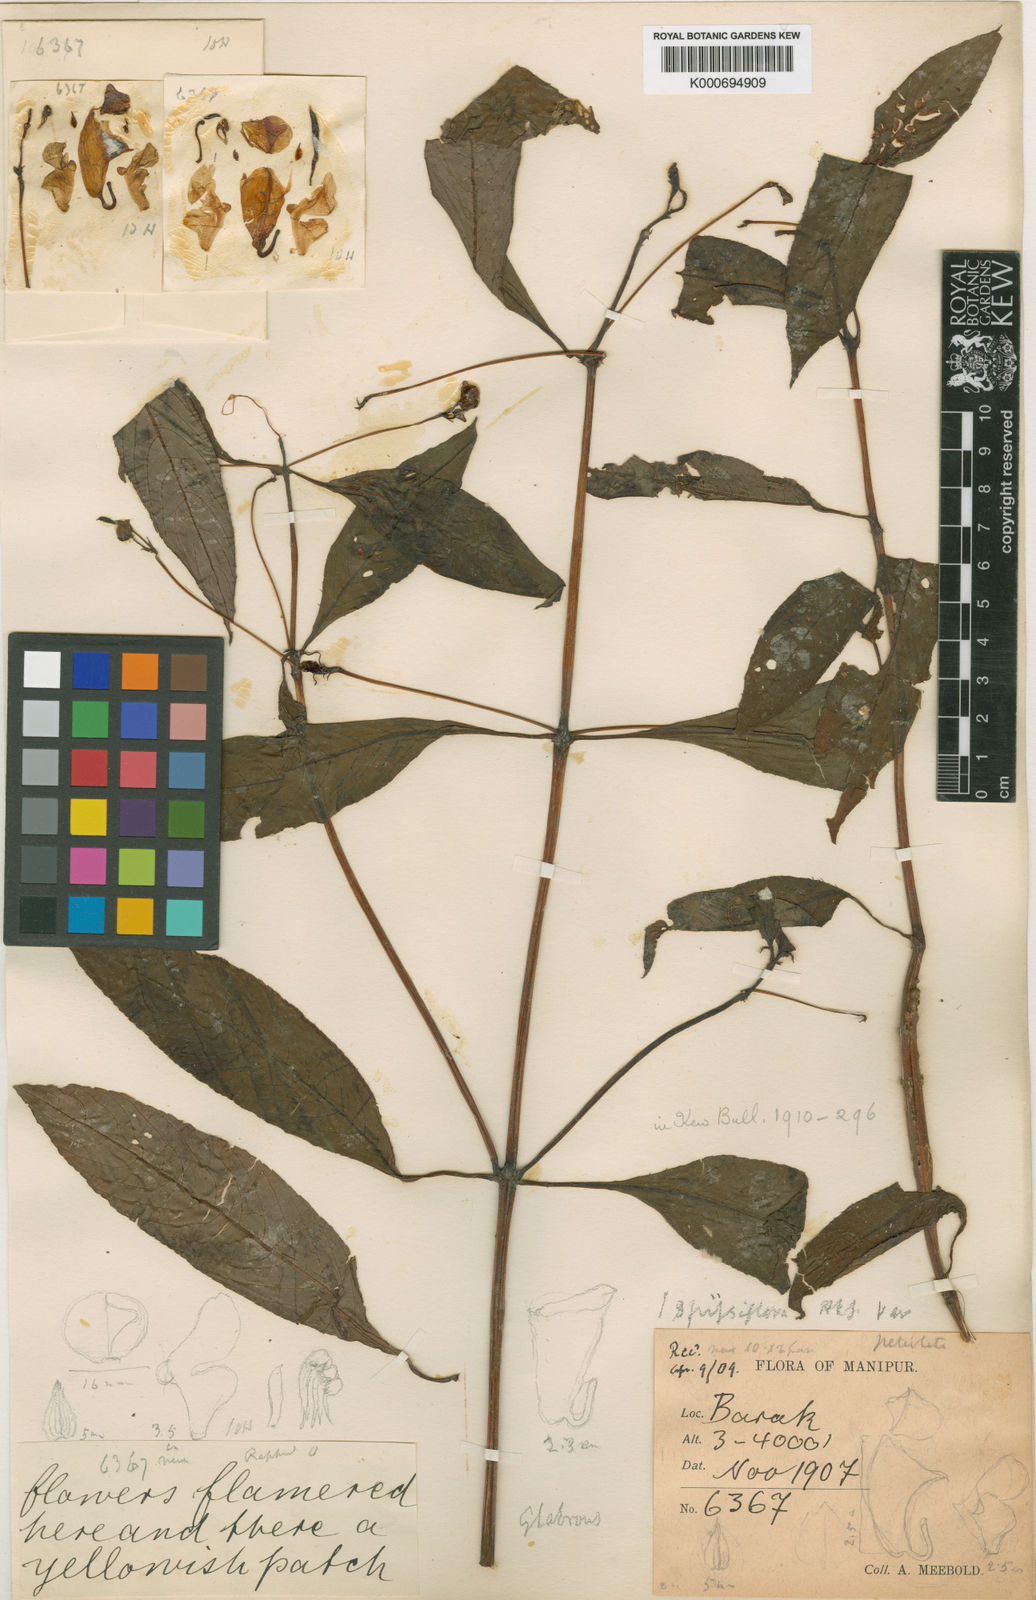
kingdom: Plantae
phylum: Tracheophyta
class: Magnoliopsida
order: Ericales
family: Balsaminaceae
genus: Impatiens
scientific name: Impatiens spissiflora
